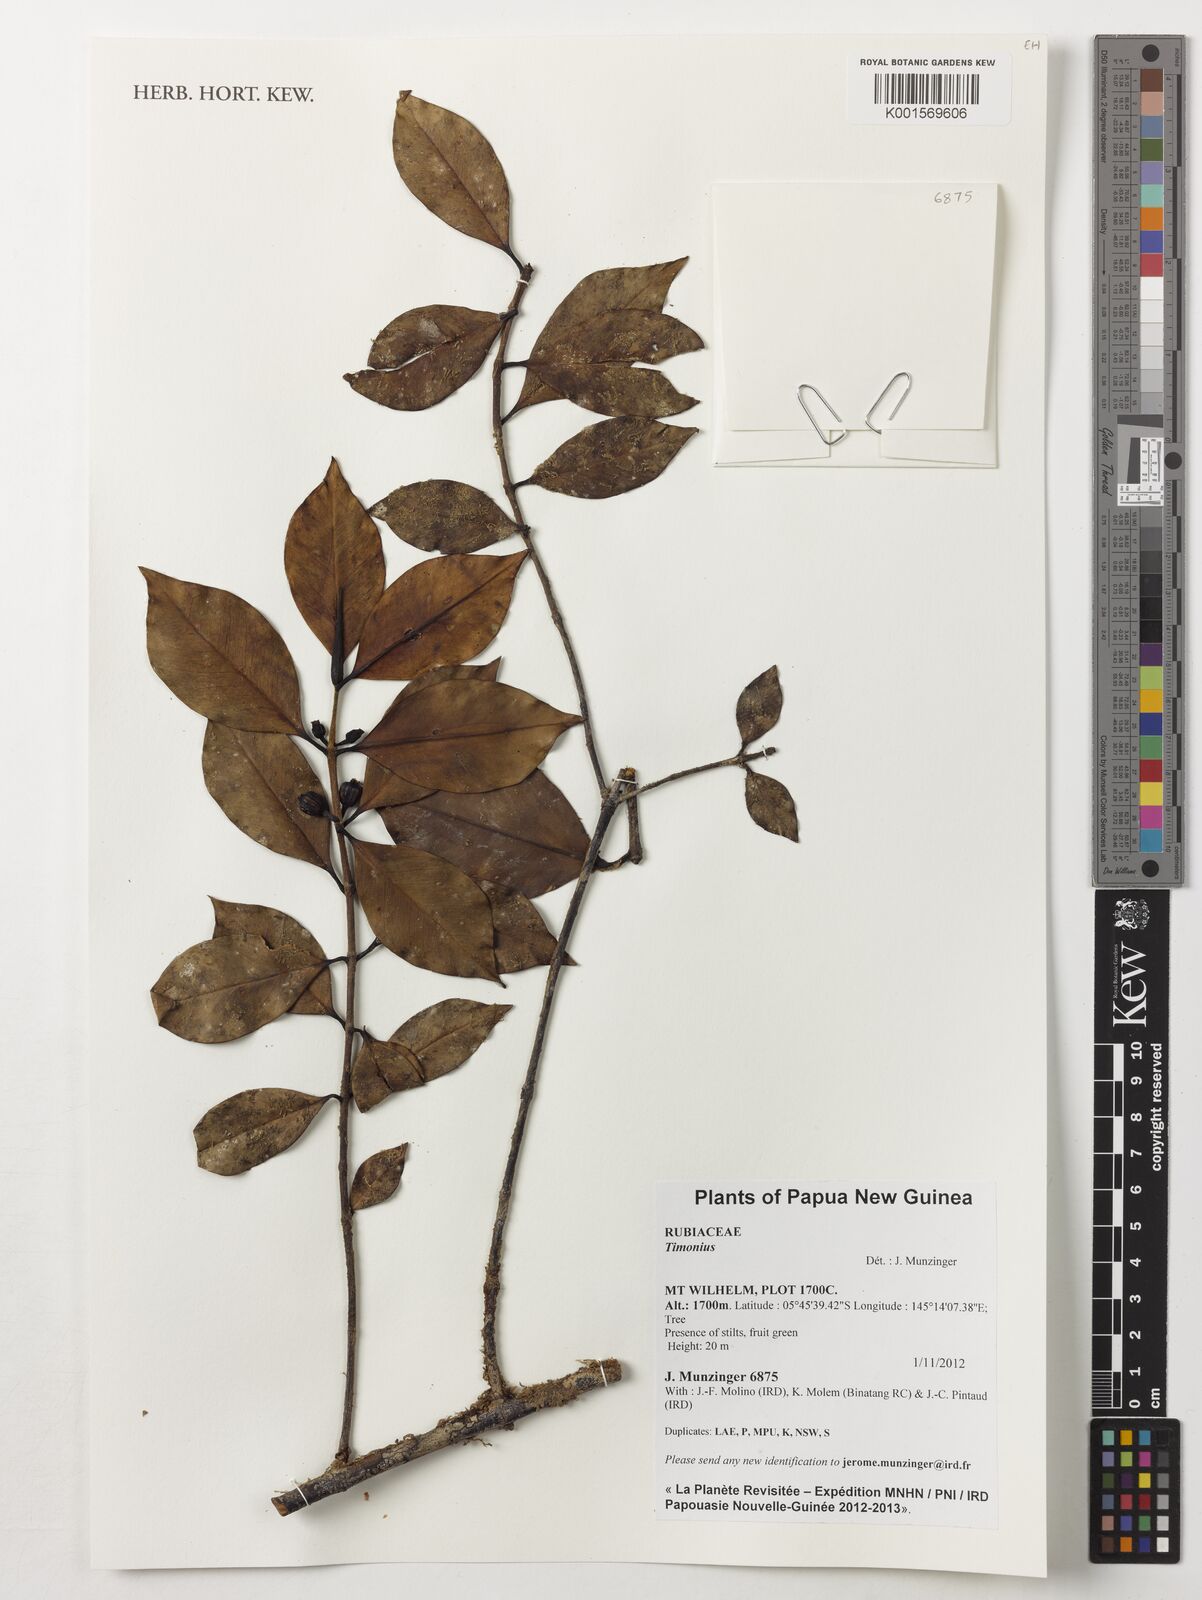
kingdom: Plantae
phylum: Tracheophyta
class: Magnoliopsida
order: Gentianales
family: Rubiaceae
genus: Timonius
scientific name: Timonius
